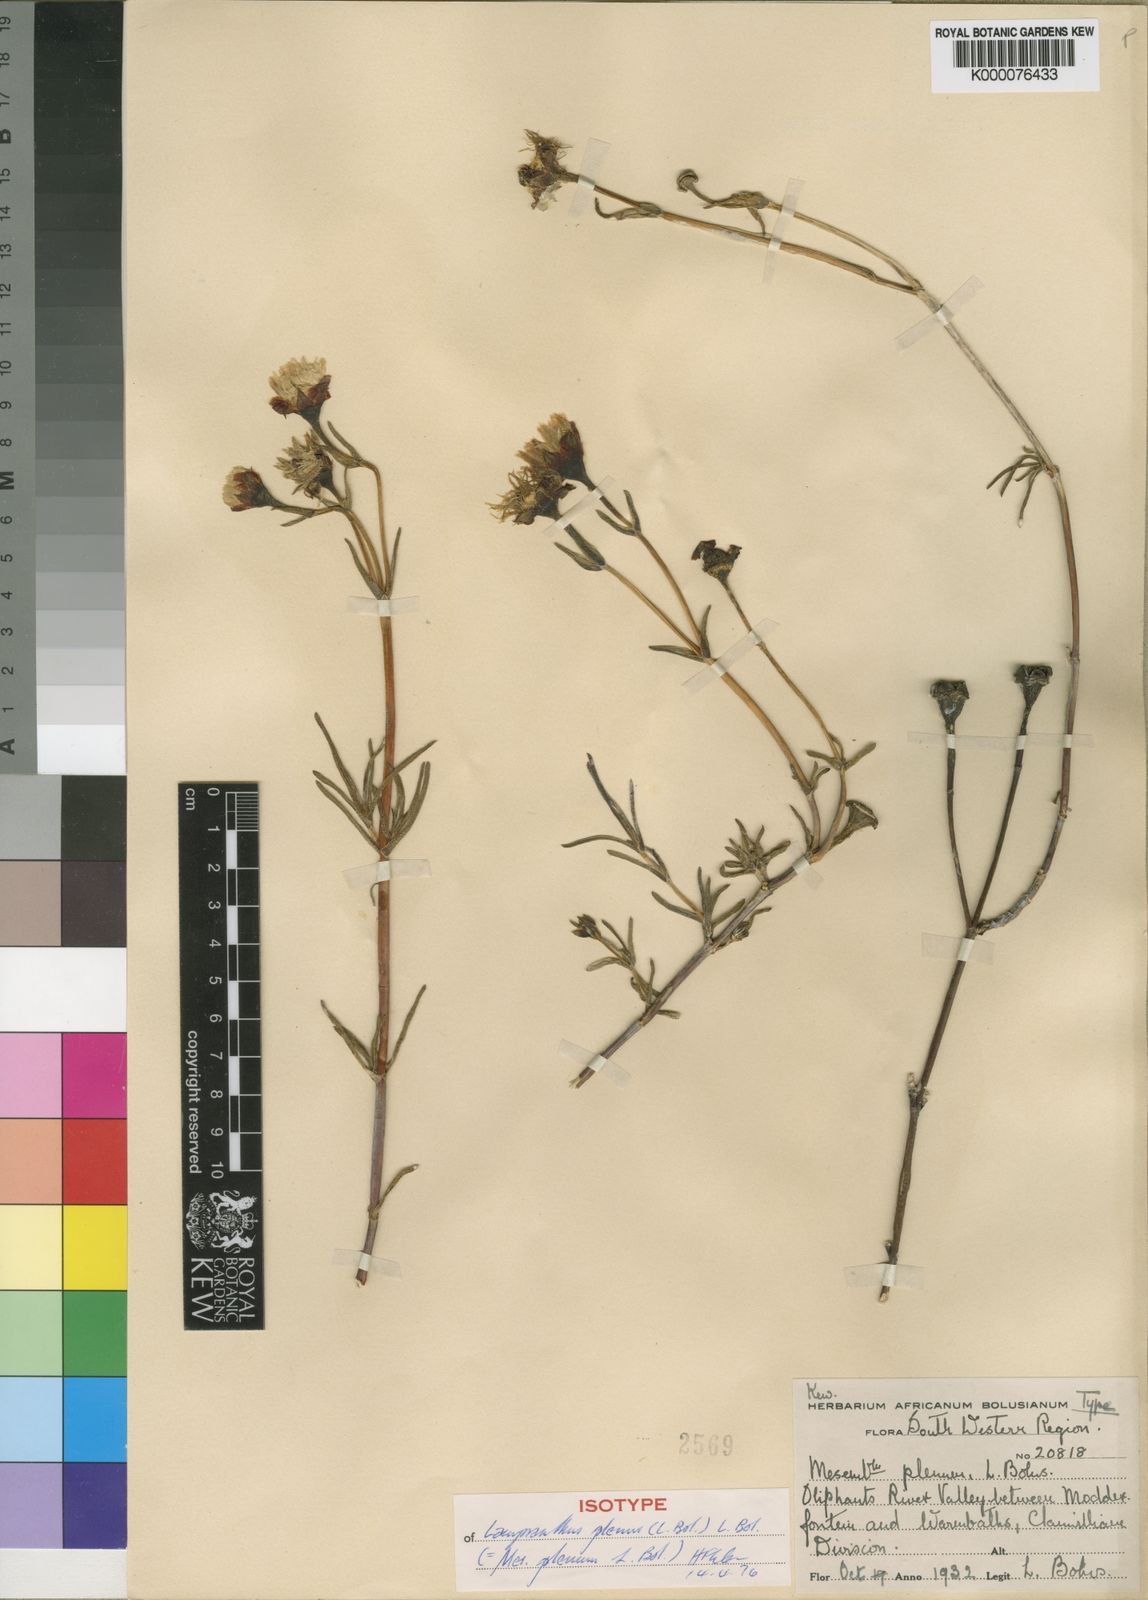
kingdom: Plantae
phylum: Tracheophyta
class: Magnoliopsida
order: Caryophyllales
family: Aizoaceae
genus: Lampranthus
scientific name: Lampranthus plenus
